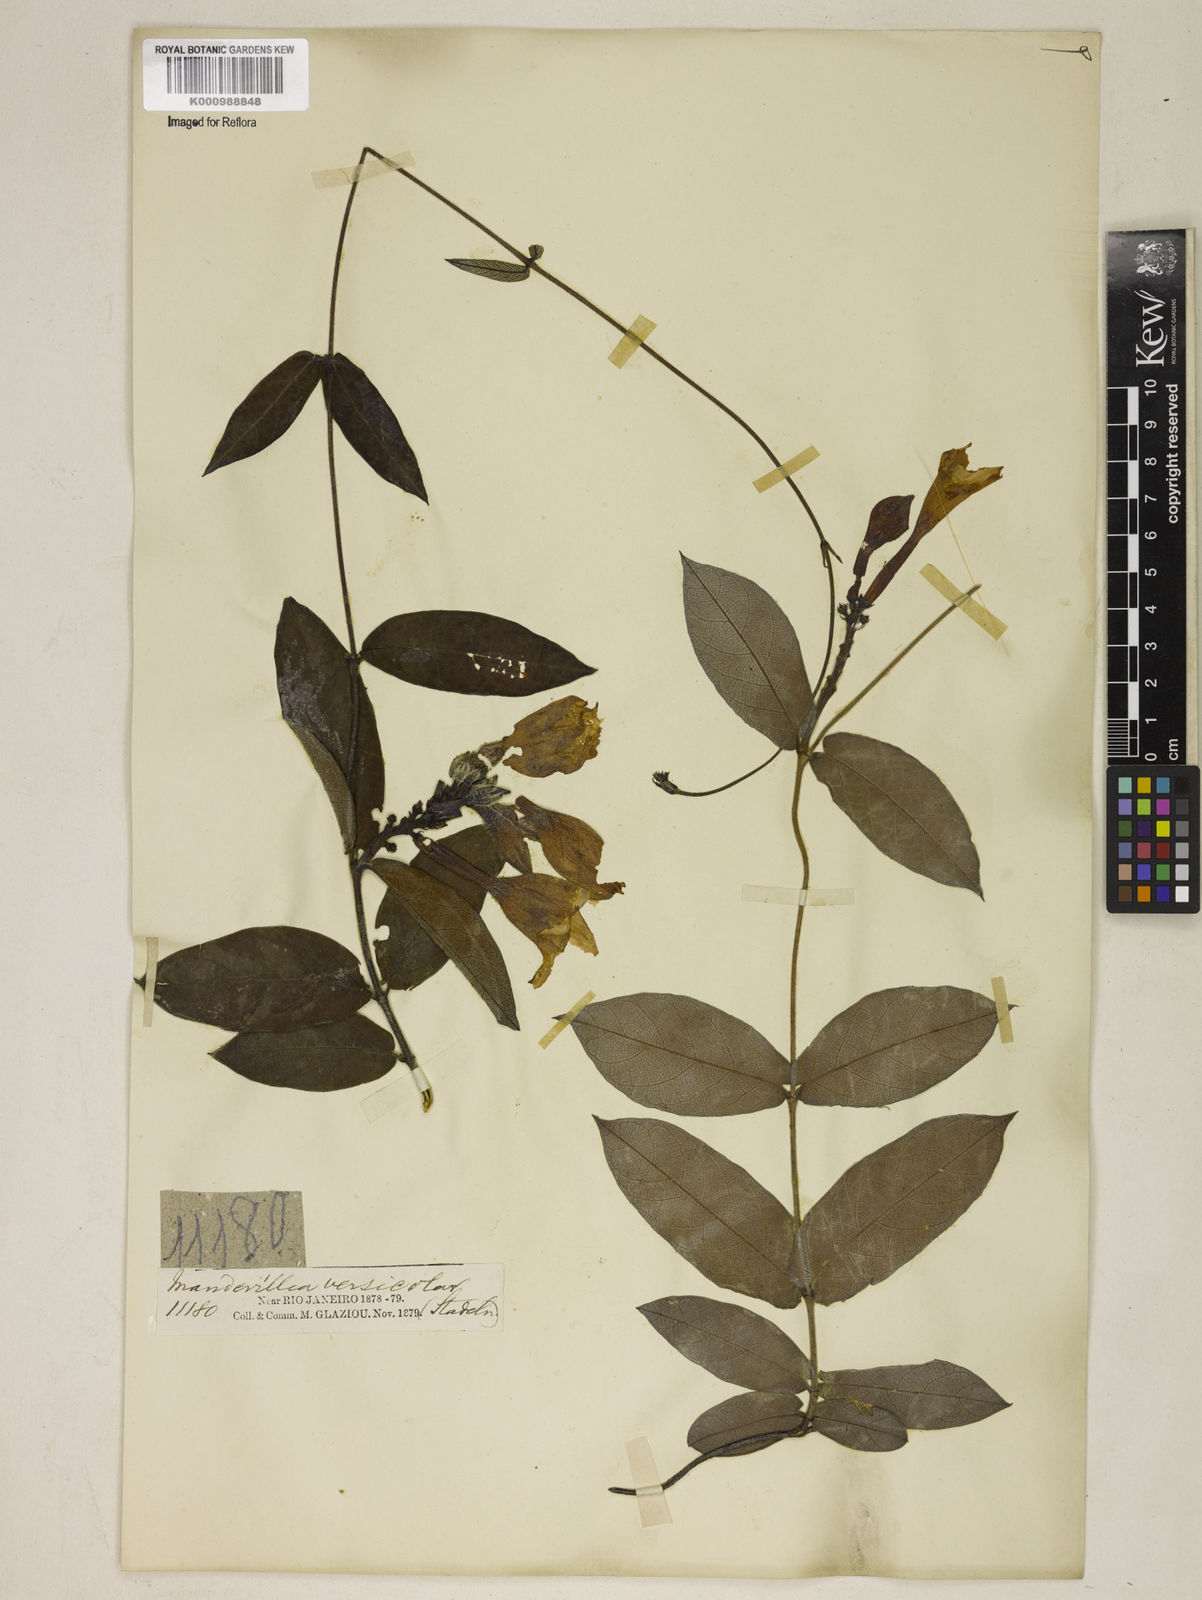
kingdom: Plantae
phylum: Tracheophyta
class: Magnoliopsida
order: Gentianales
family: Apocynaceae
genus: Mandevilla
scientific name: Mandevilla scabra
